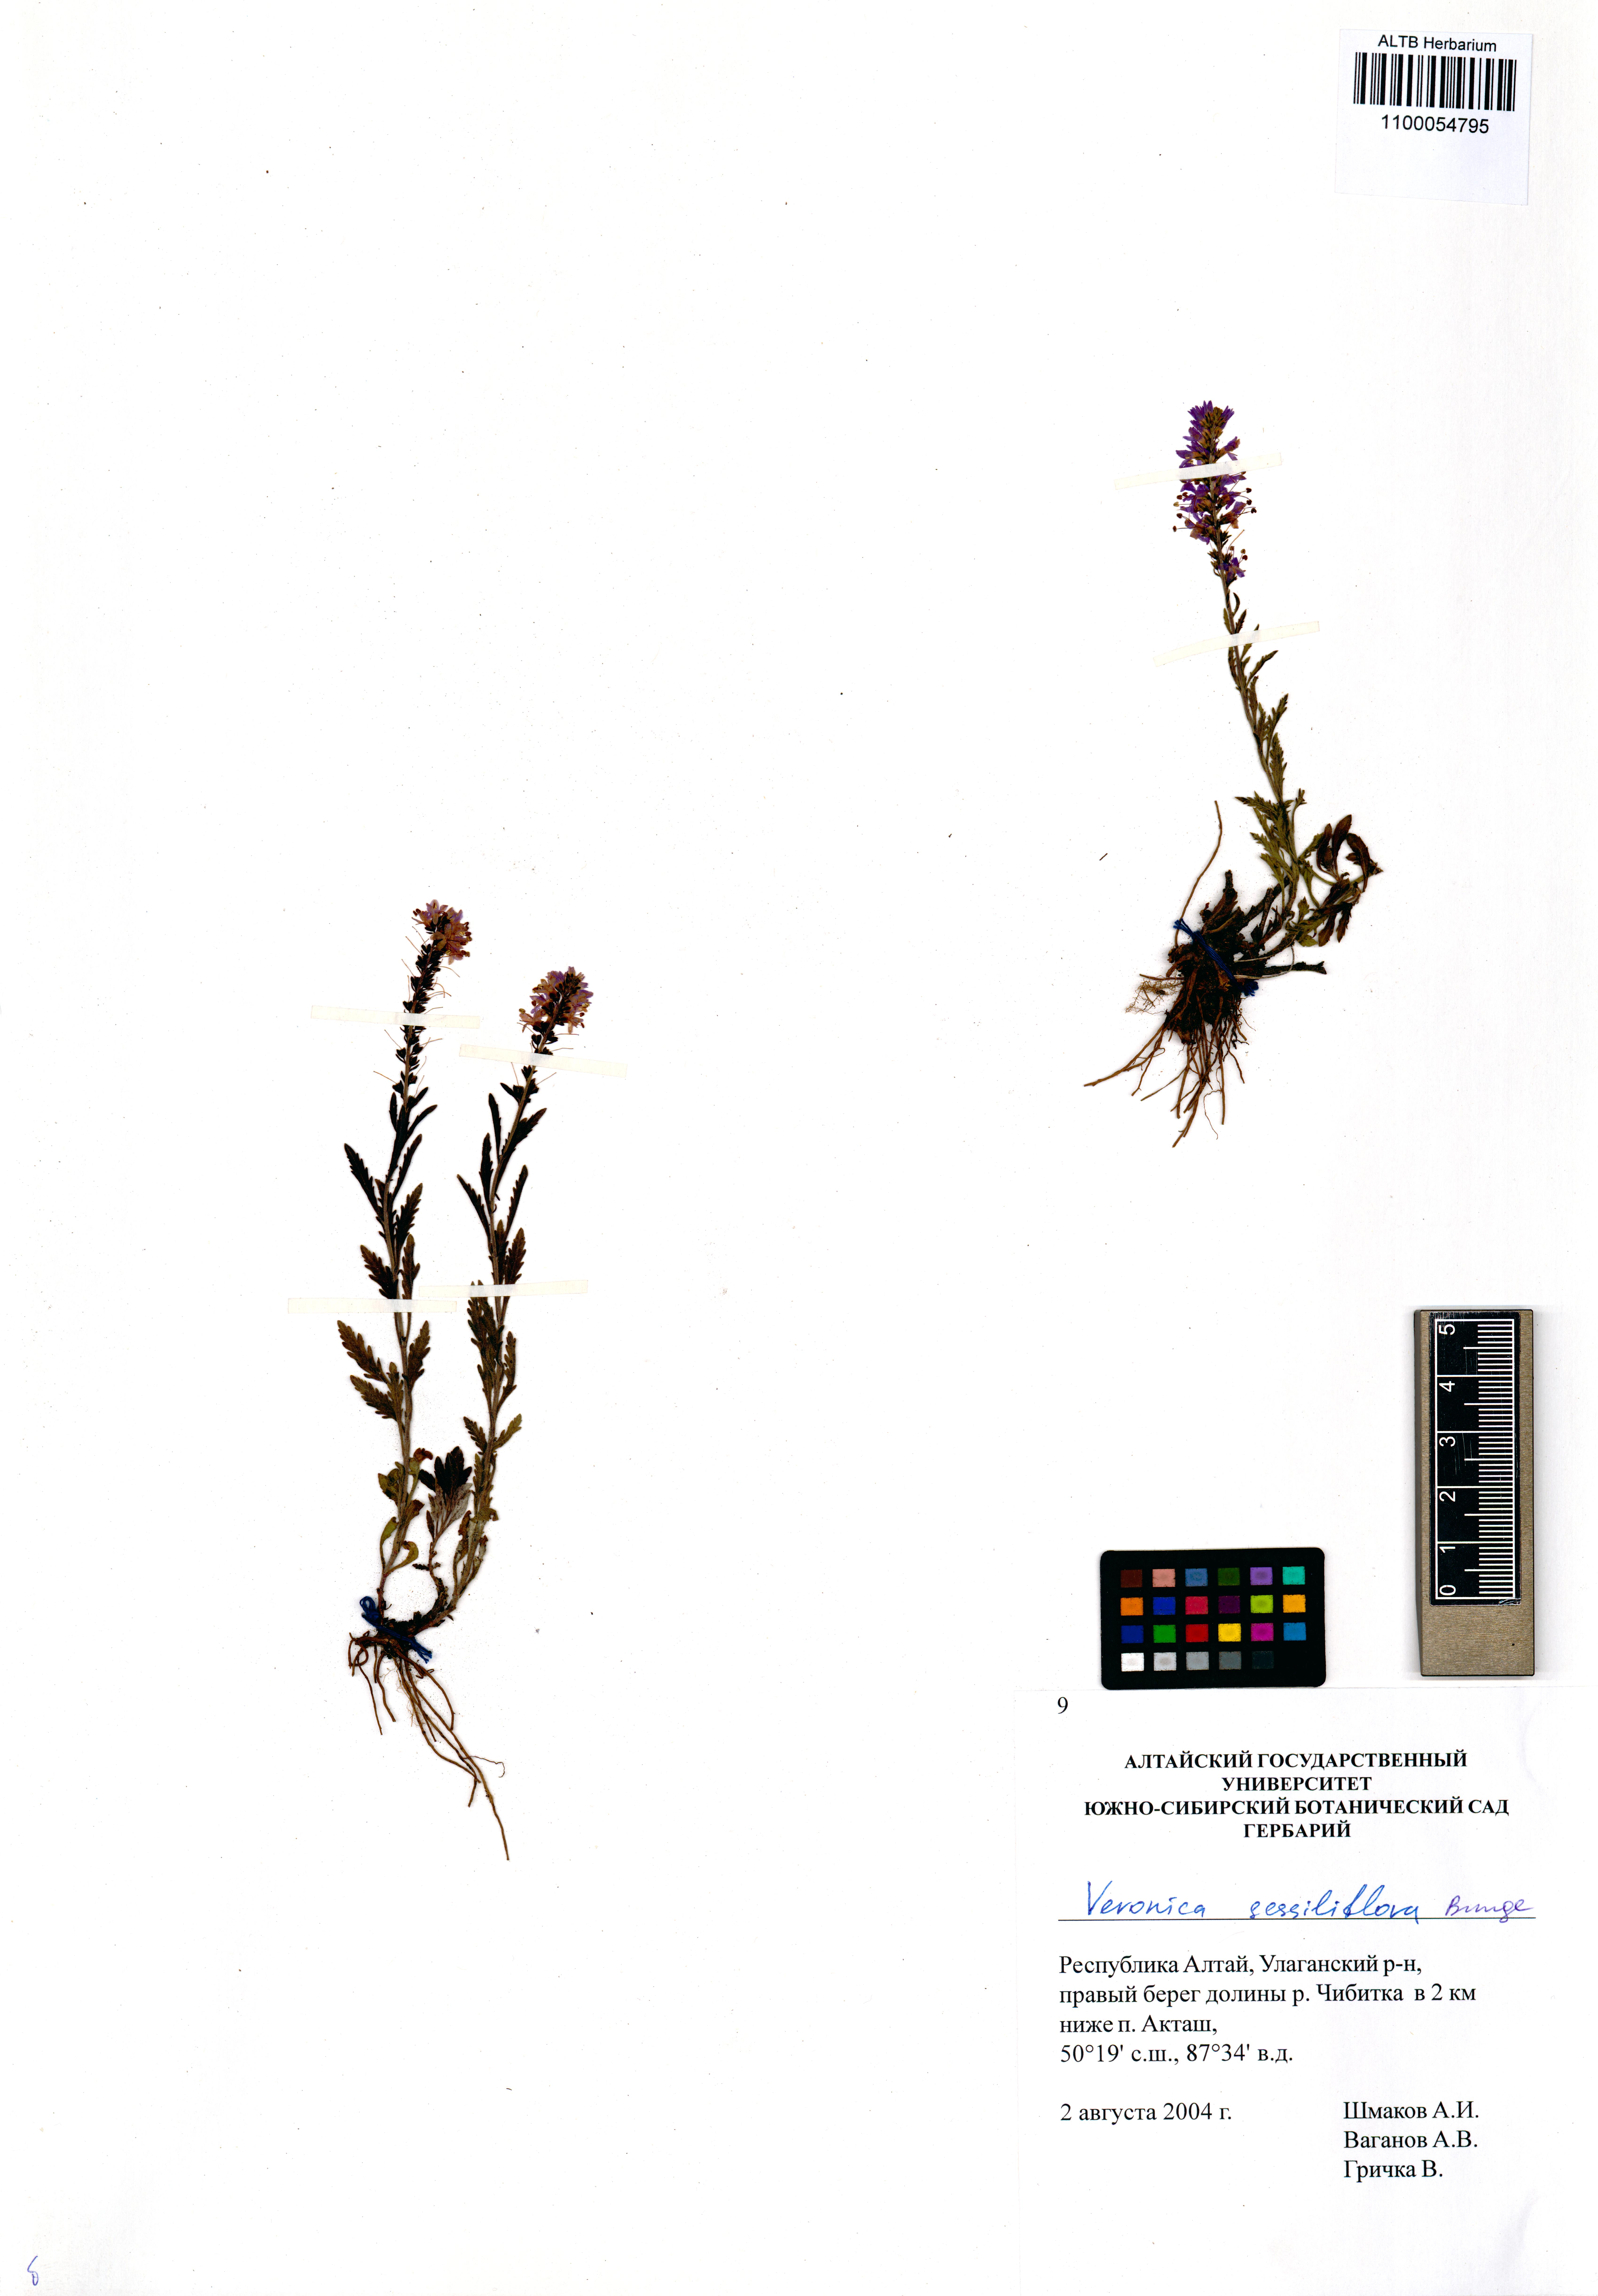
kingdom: Plantae
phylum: Tracheophyta
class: Magnoliopsida
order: Lamiales
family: Plantaginaceae
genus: Veronica
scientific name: Veronica sessiliflora
